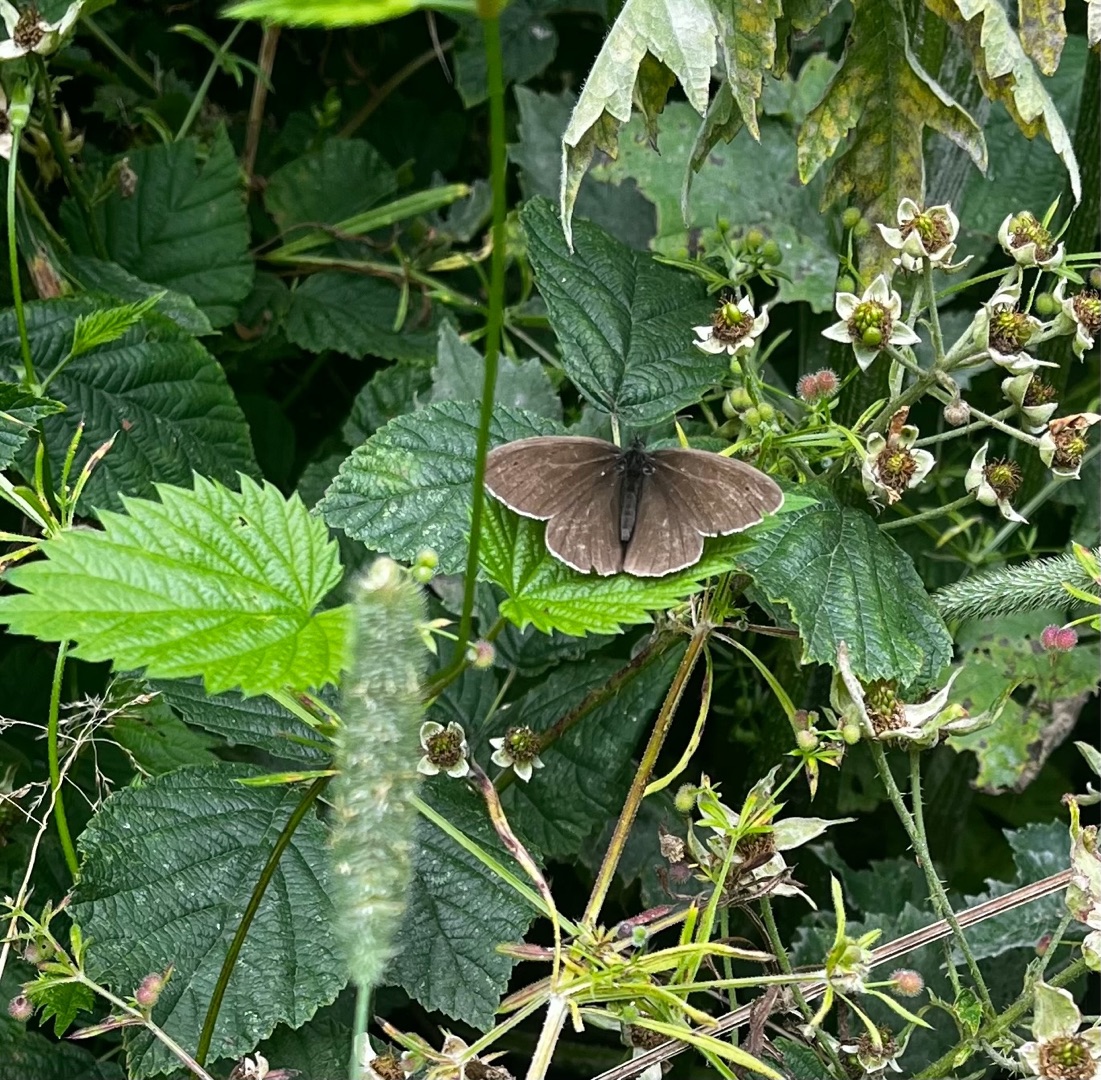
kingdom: Animalia
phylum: Arthropoda
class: Insecta
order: Lepidoptera
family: Nymphalidae
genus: Aphantopus
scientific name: Aphantopus hyperantus
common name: Engrandøje
